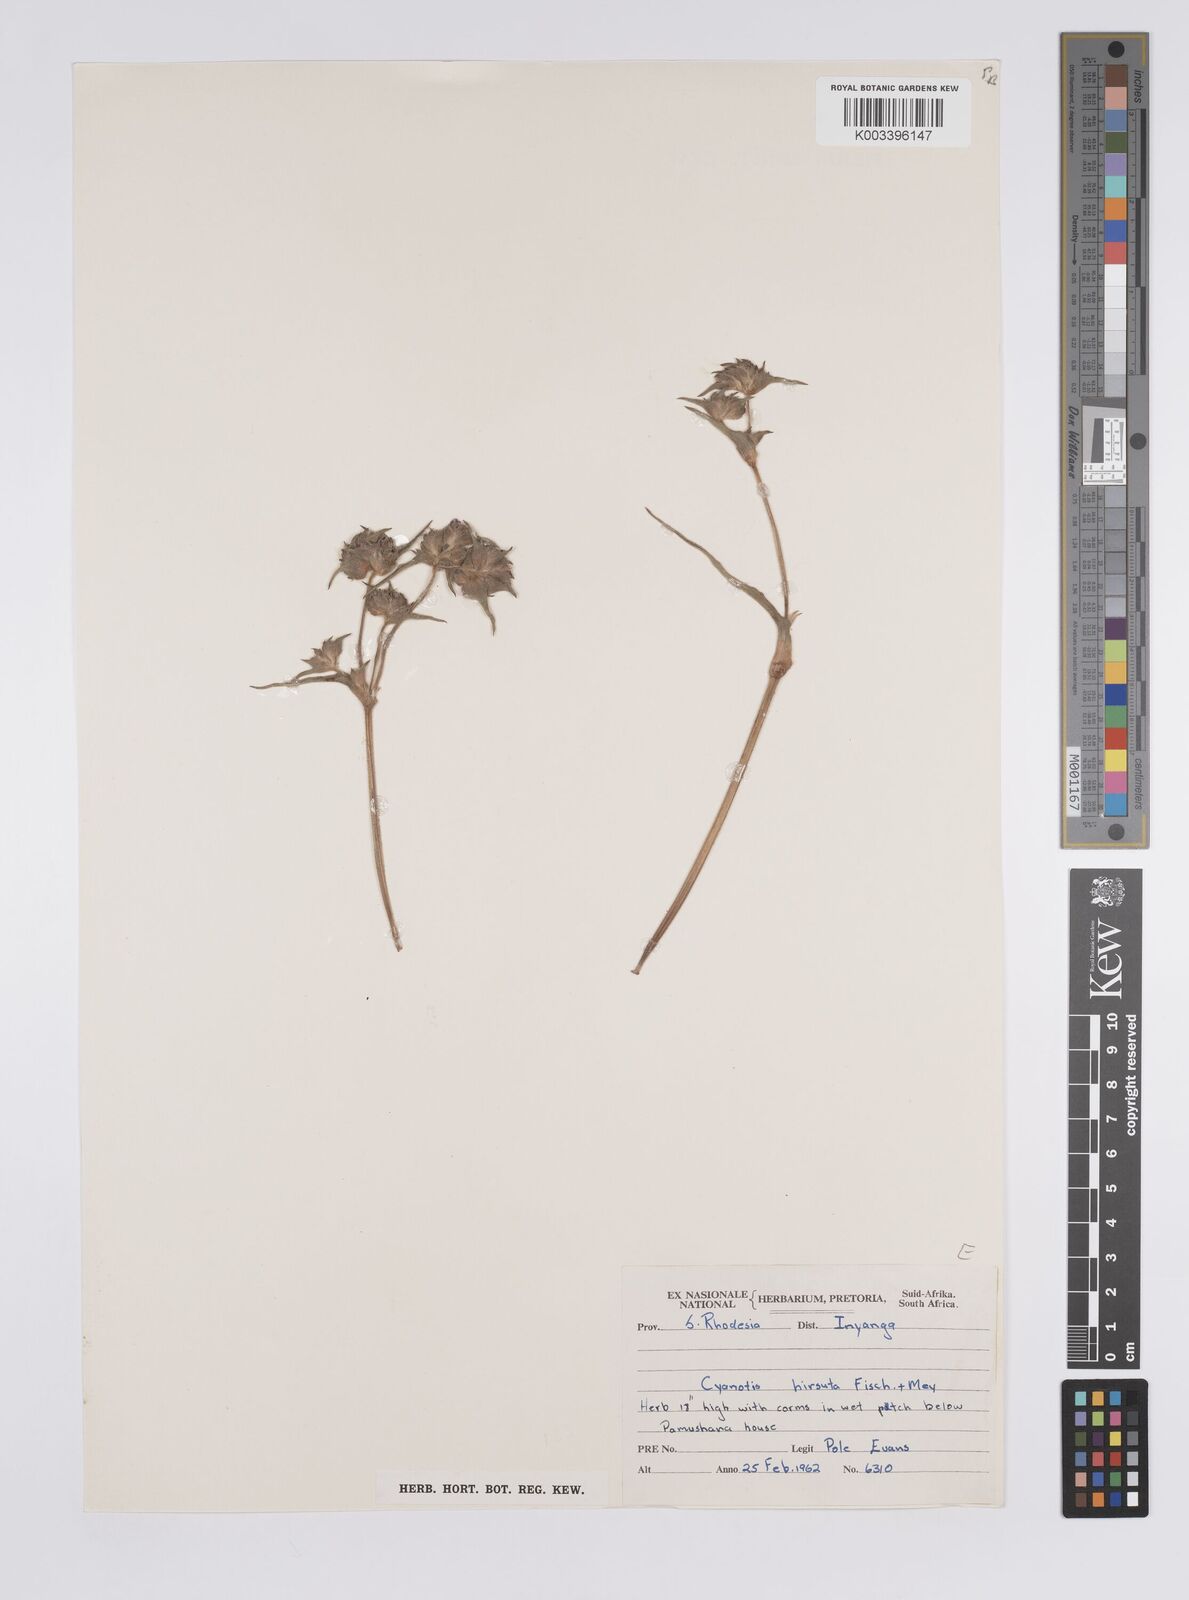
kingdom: Plantae
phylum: Tracheophyta
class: Liliopsida
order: Commelinales
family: Commelinaceae
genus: Cyanotis
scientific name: Cyanotis vaga
